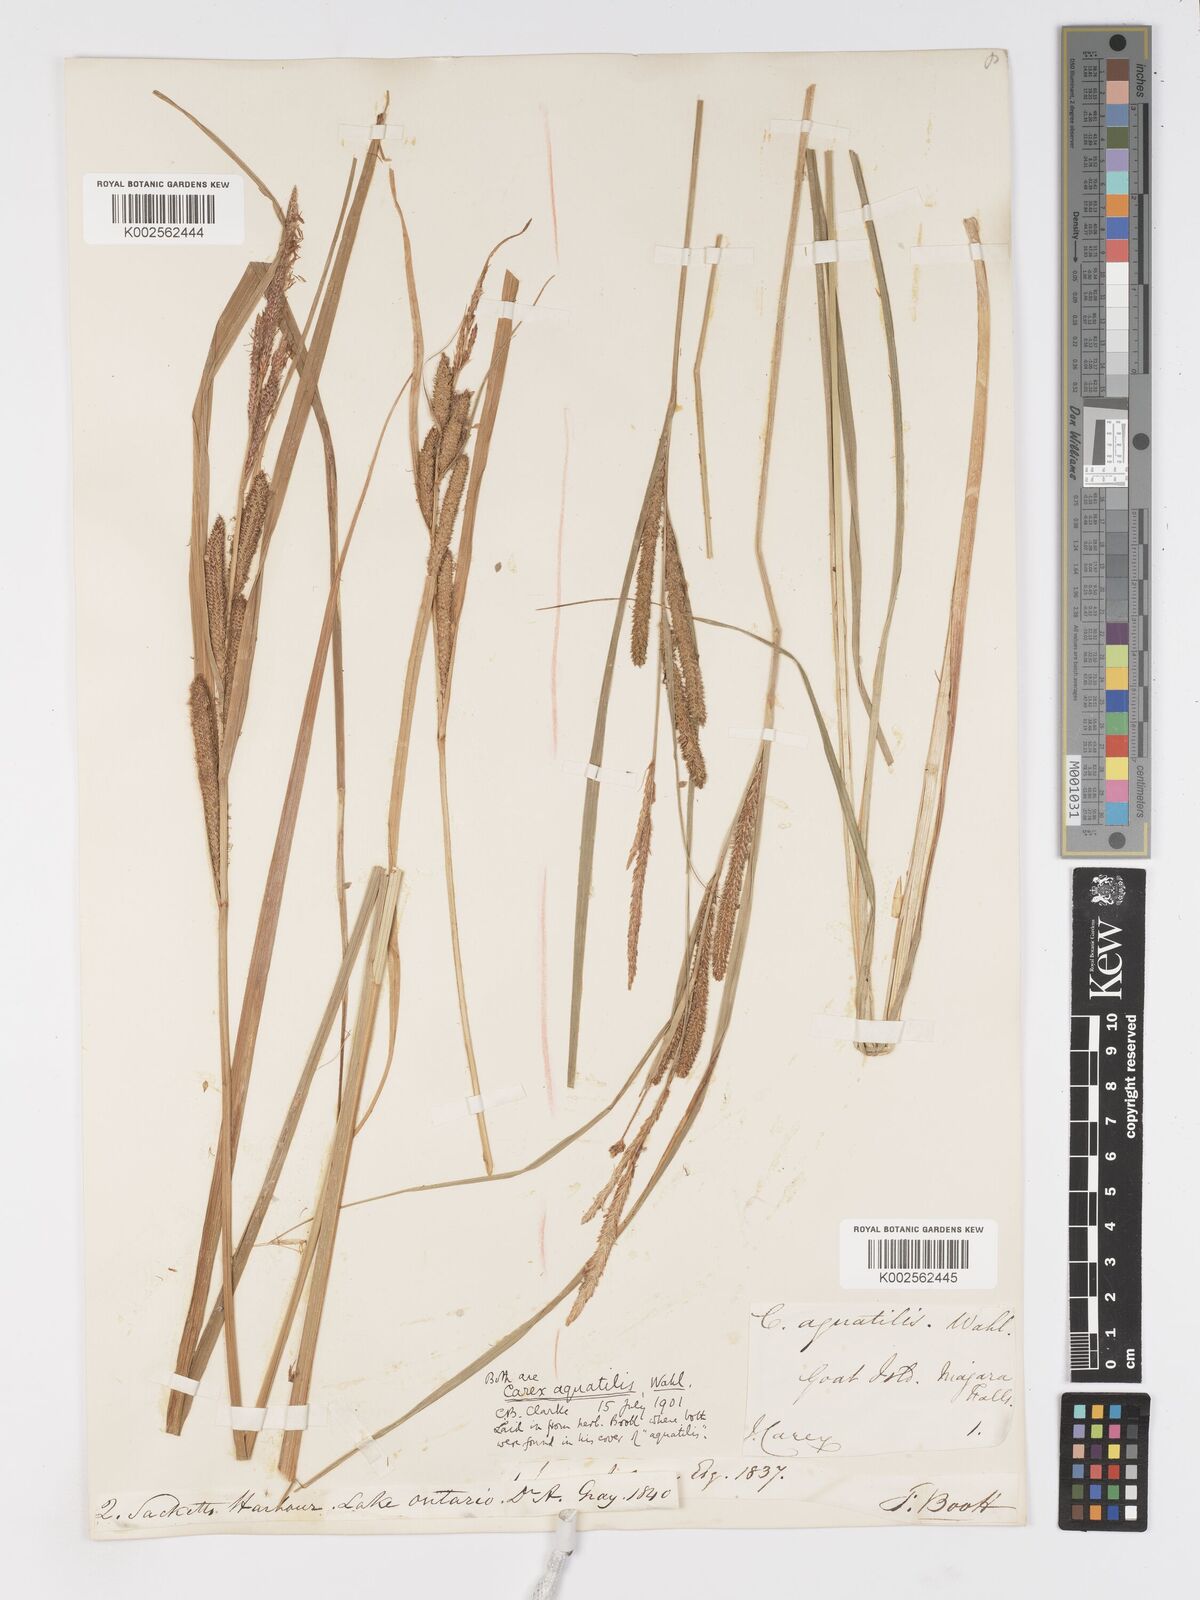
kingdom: Plantae
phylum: Tracheophyta
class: Liliopsida
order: Poales
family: Cyperaceae
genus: Carex
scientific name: Carex
